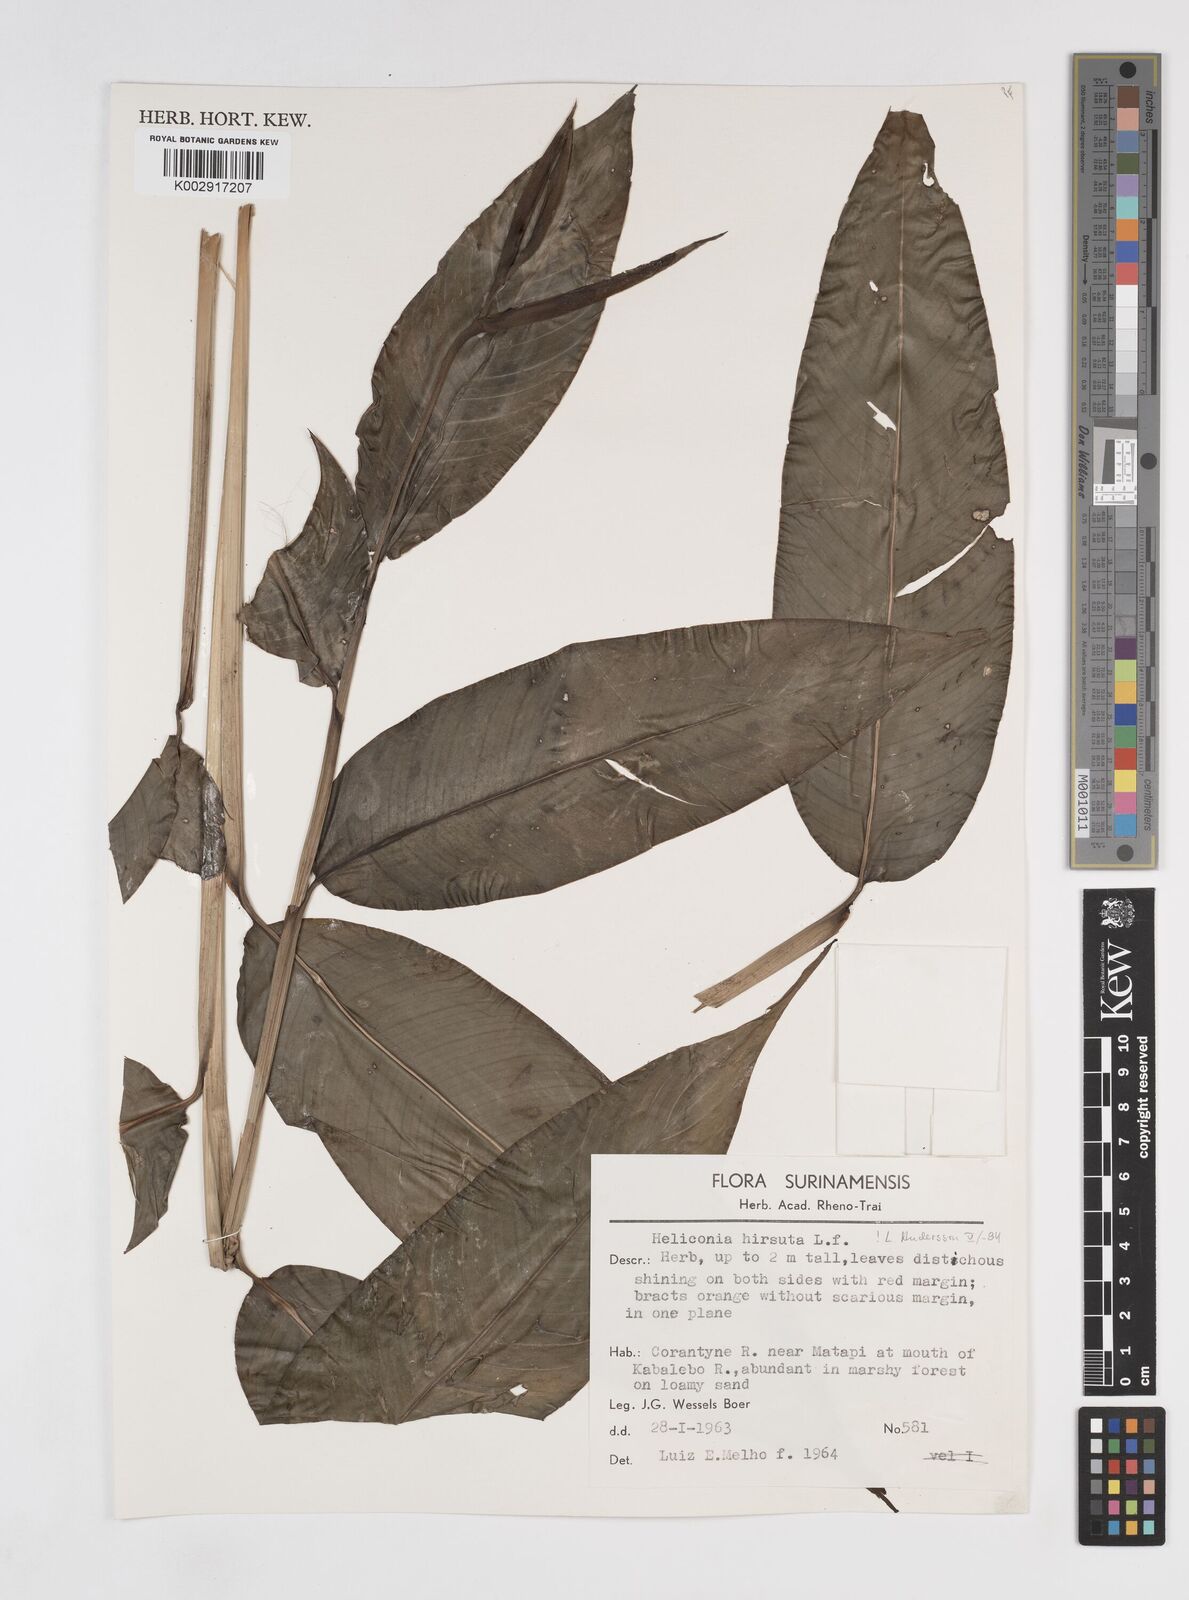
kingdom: Plantae
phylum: Tracheophyta
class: Liliopsida
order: Zingiberales
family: Heliconiaceae
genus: Heliconia
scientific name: Heliconia hirsuta
